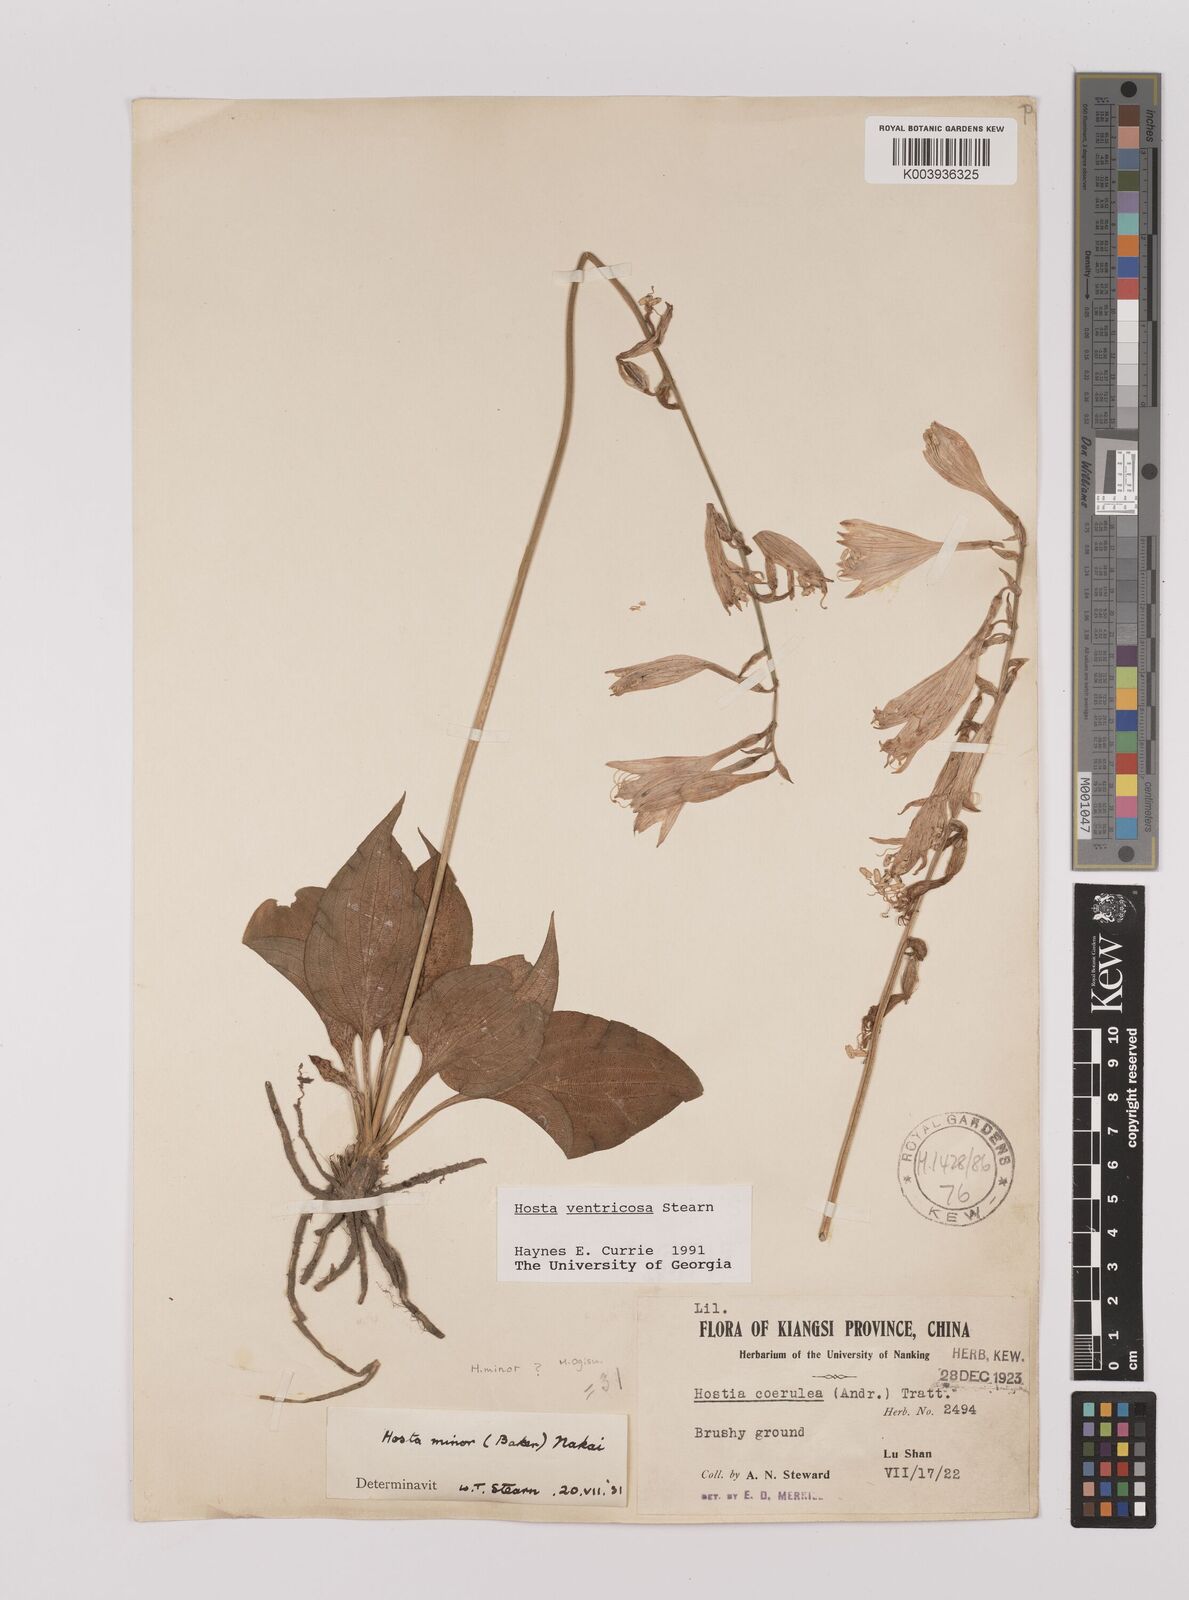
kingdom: Plantae
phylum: Tracheophyta
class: Liliopsida
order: Asparagales
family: Asparagaceae
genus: Hosta
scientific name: Hosta ventricosa
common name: Blue plantain-lily
